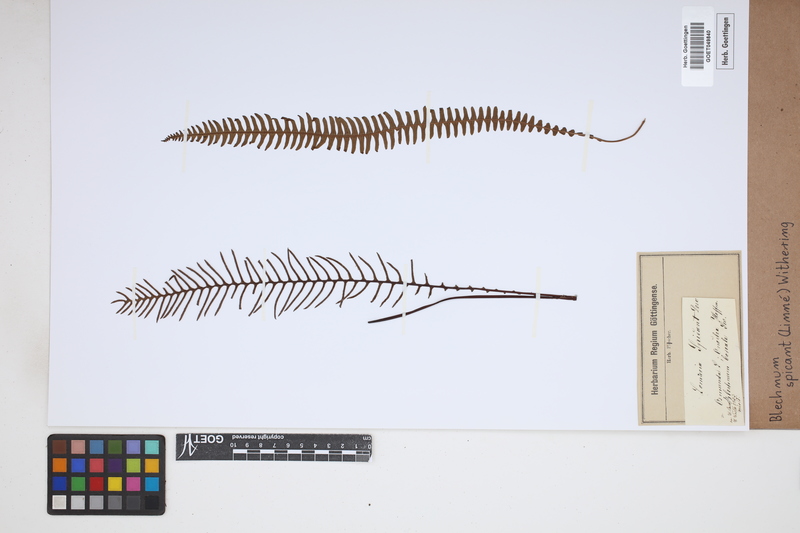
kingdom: Plantae
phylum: Tracheophyta
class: Polypodiopsida
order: Polypodiales
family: Blechnaceae
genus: Struthiopteris
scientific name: Struthiopteris spicant
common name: Deer fern
